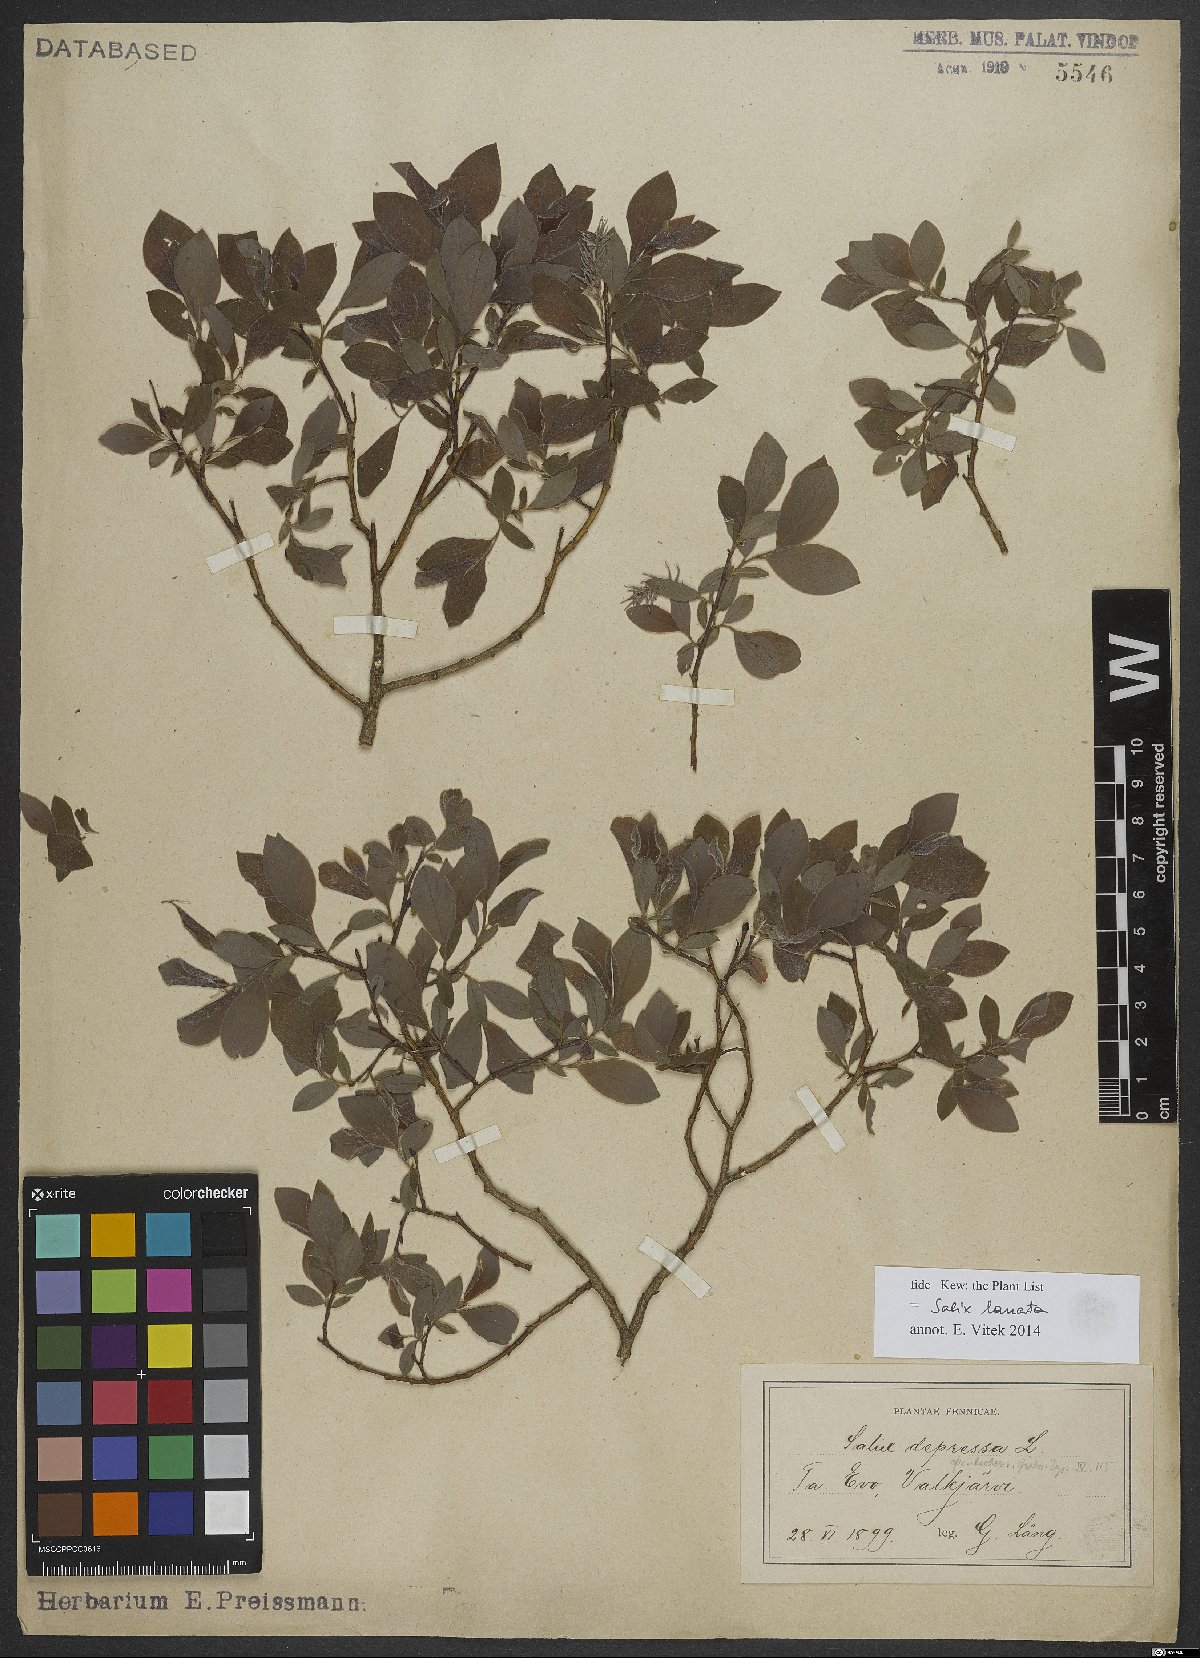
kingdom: Plantae
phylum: Tracheophyta
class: Magnoliopsida
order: Malpighiales
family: Salicaceae
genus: Salix
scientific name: Salix lanata
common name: Woolly willow
